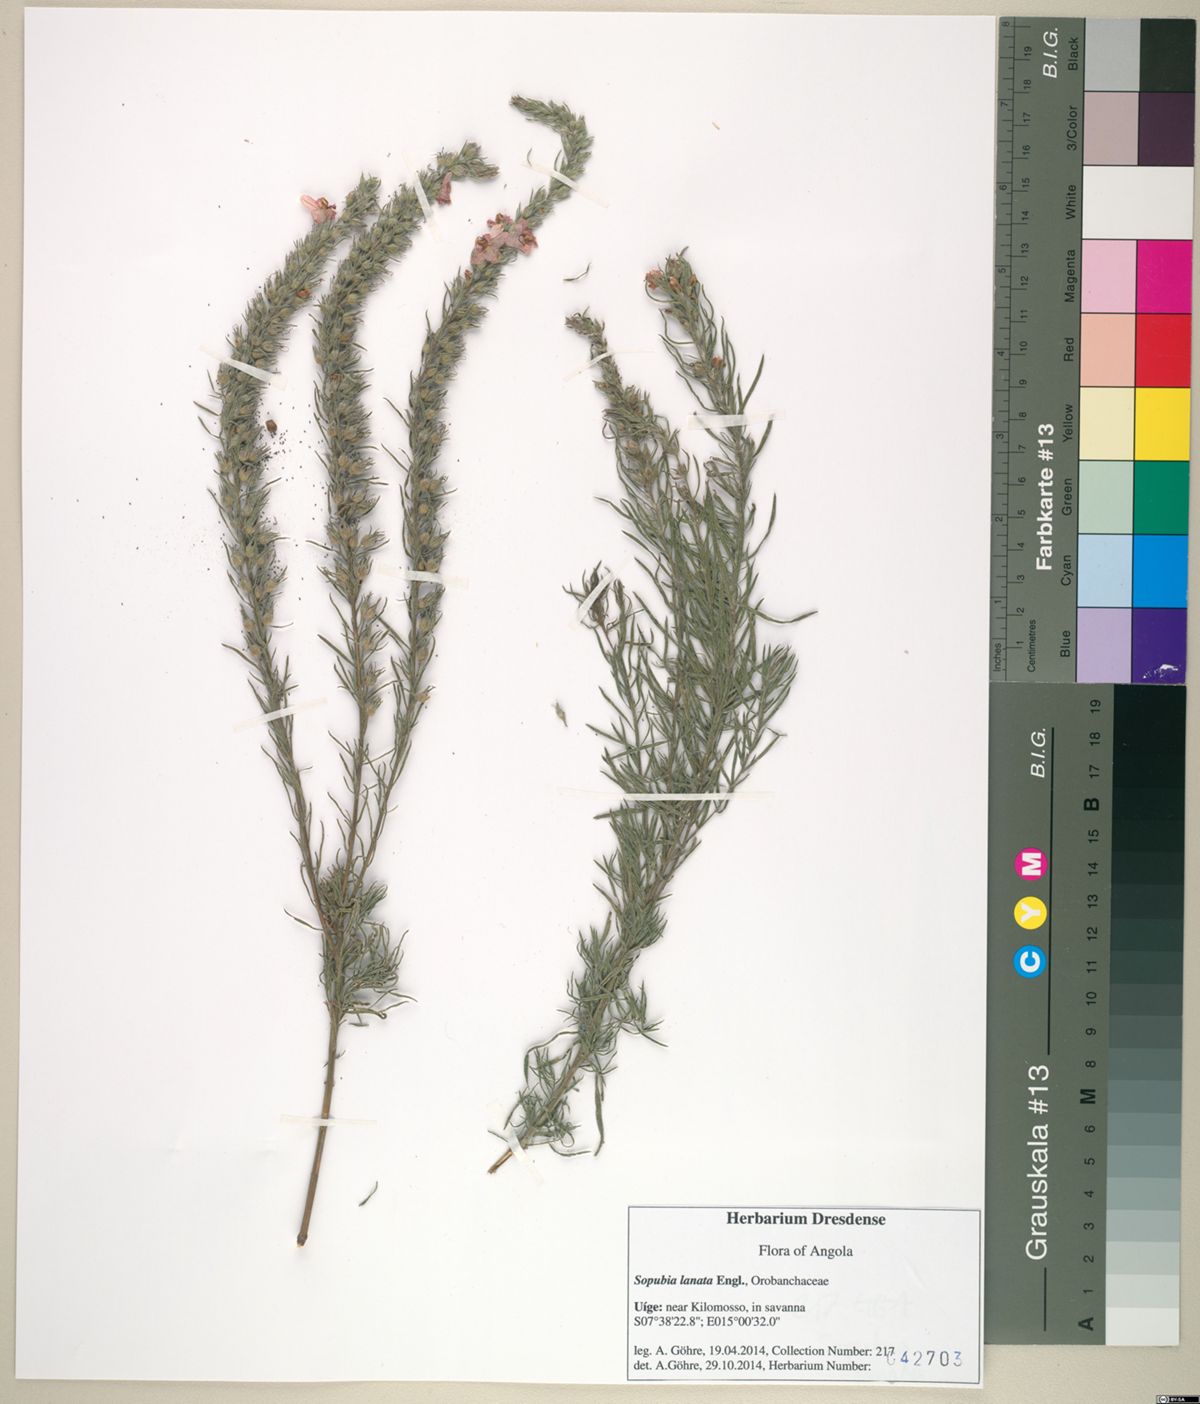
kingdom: Plantae
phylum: Tracheophyta
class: Magnoliopsida
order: Lamiales
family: Orobanchaceae
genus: Sopubia
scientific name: Sopubia lanata
